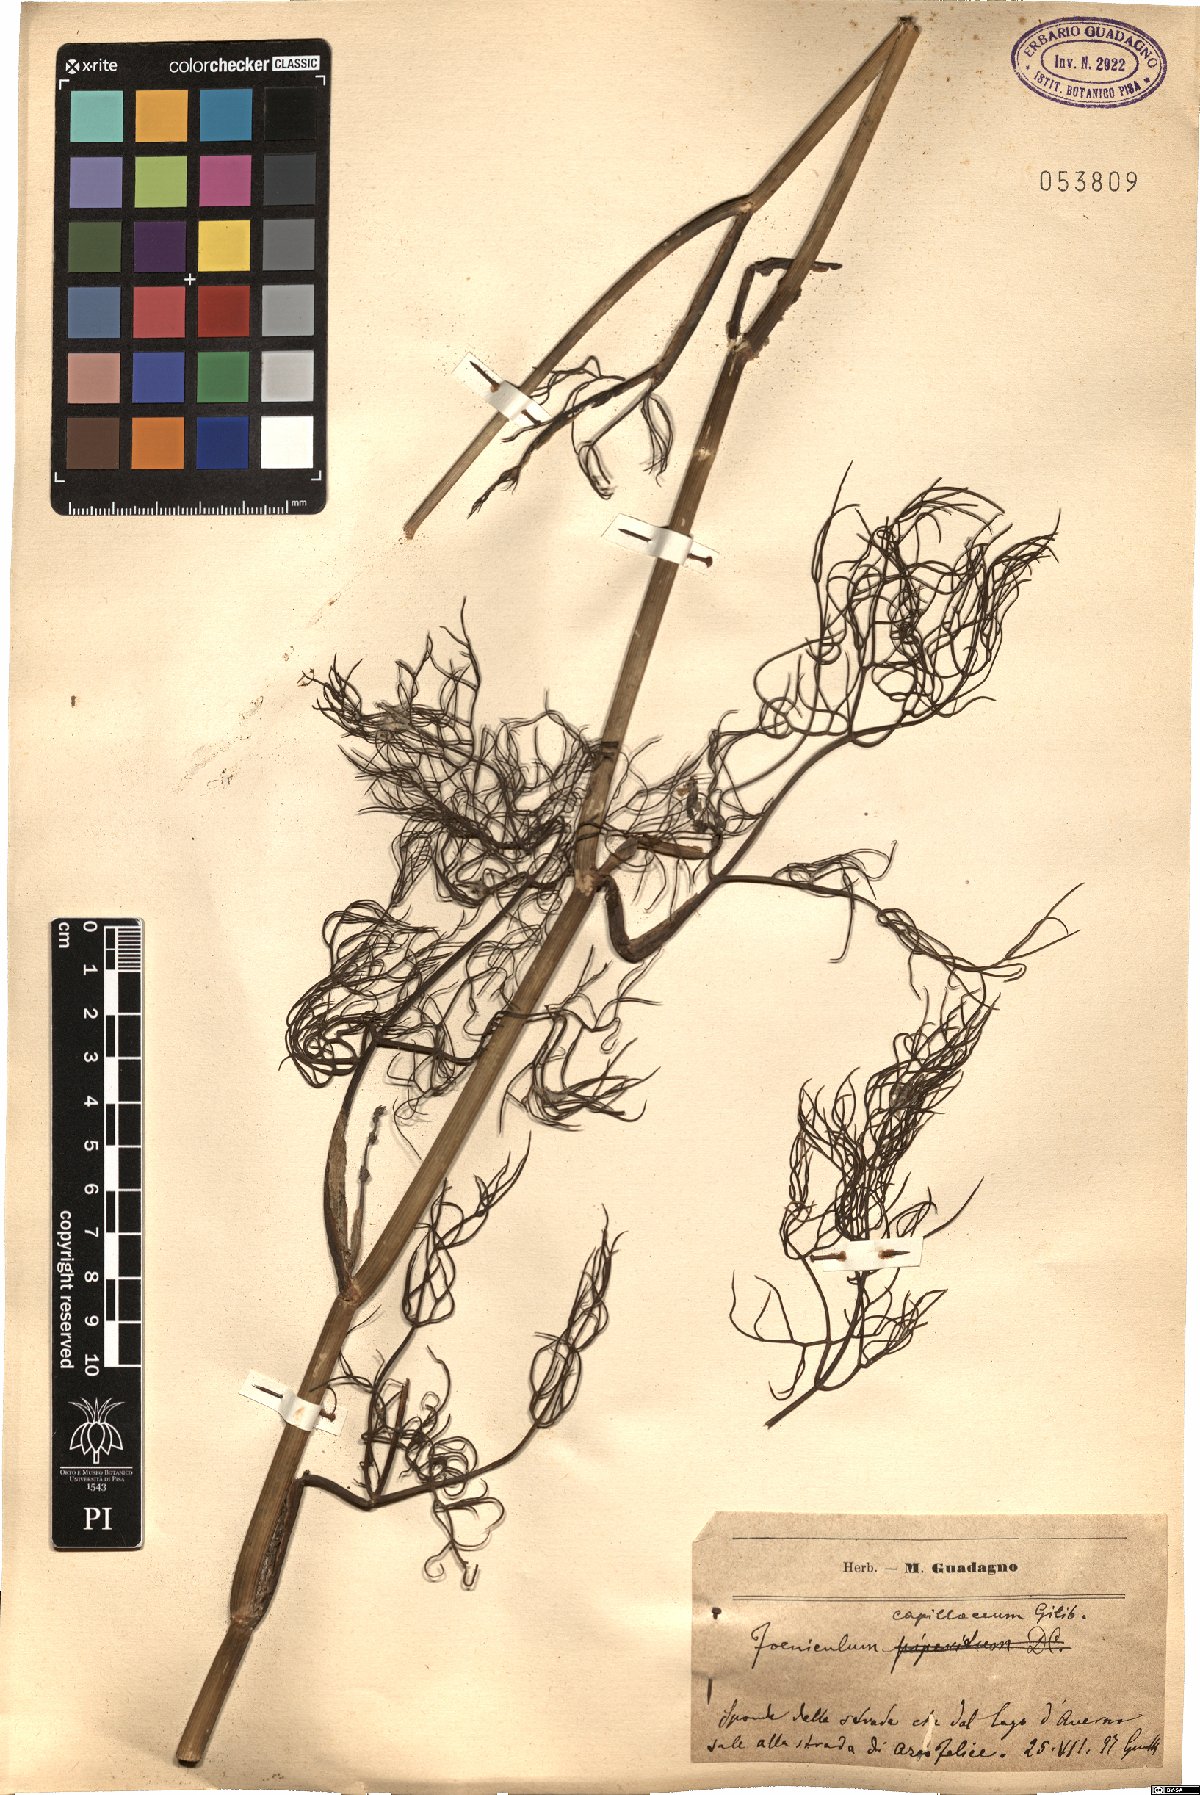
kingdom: Plantae
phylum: Tracheophyta
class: Magnoliopsida
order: Apiales
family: Apiaceae
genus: Foeniculum
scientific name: Foeniculum vulgare
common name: Fennel
